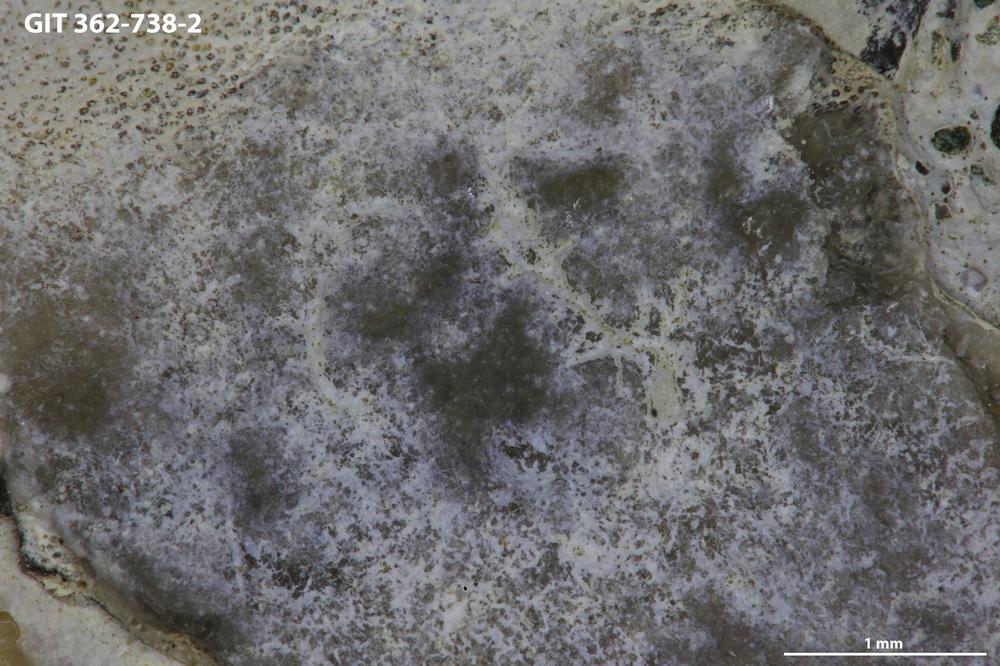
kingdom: Animalia
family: Dendrinidae
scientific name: Dendrinidae
